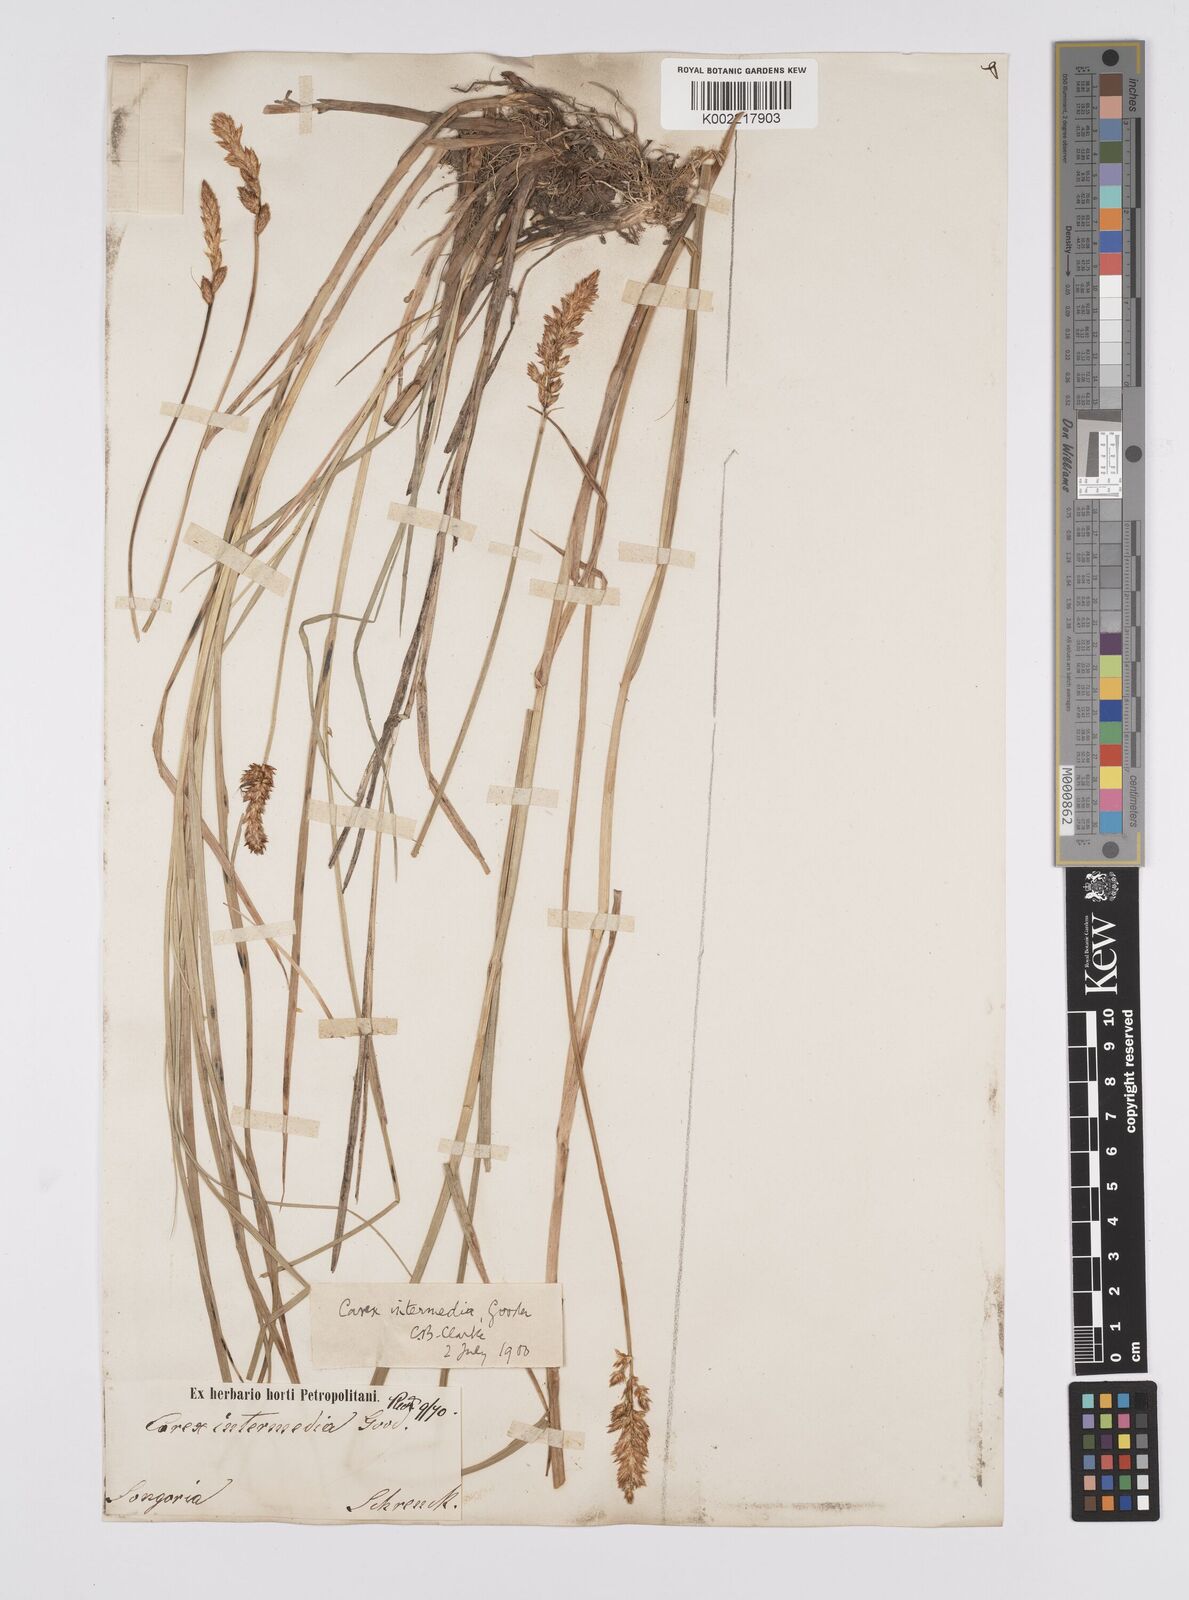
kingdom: Plantae
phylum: Tracheophyta
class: Liliopsida
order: Poales
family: Cyperaceae
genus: Carex
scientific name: Carex disticha
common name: Brown sedge
